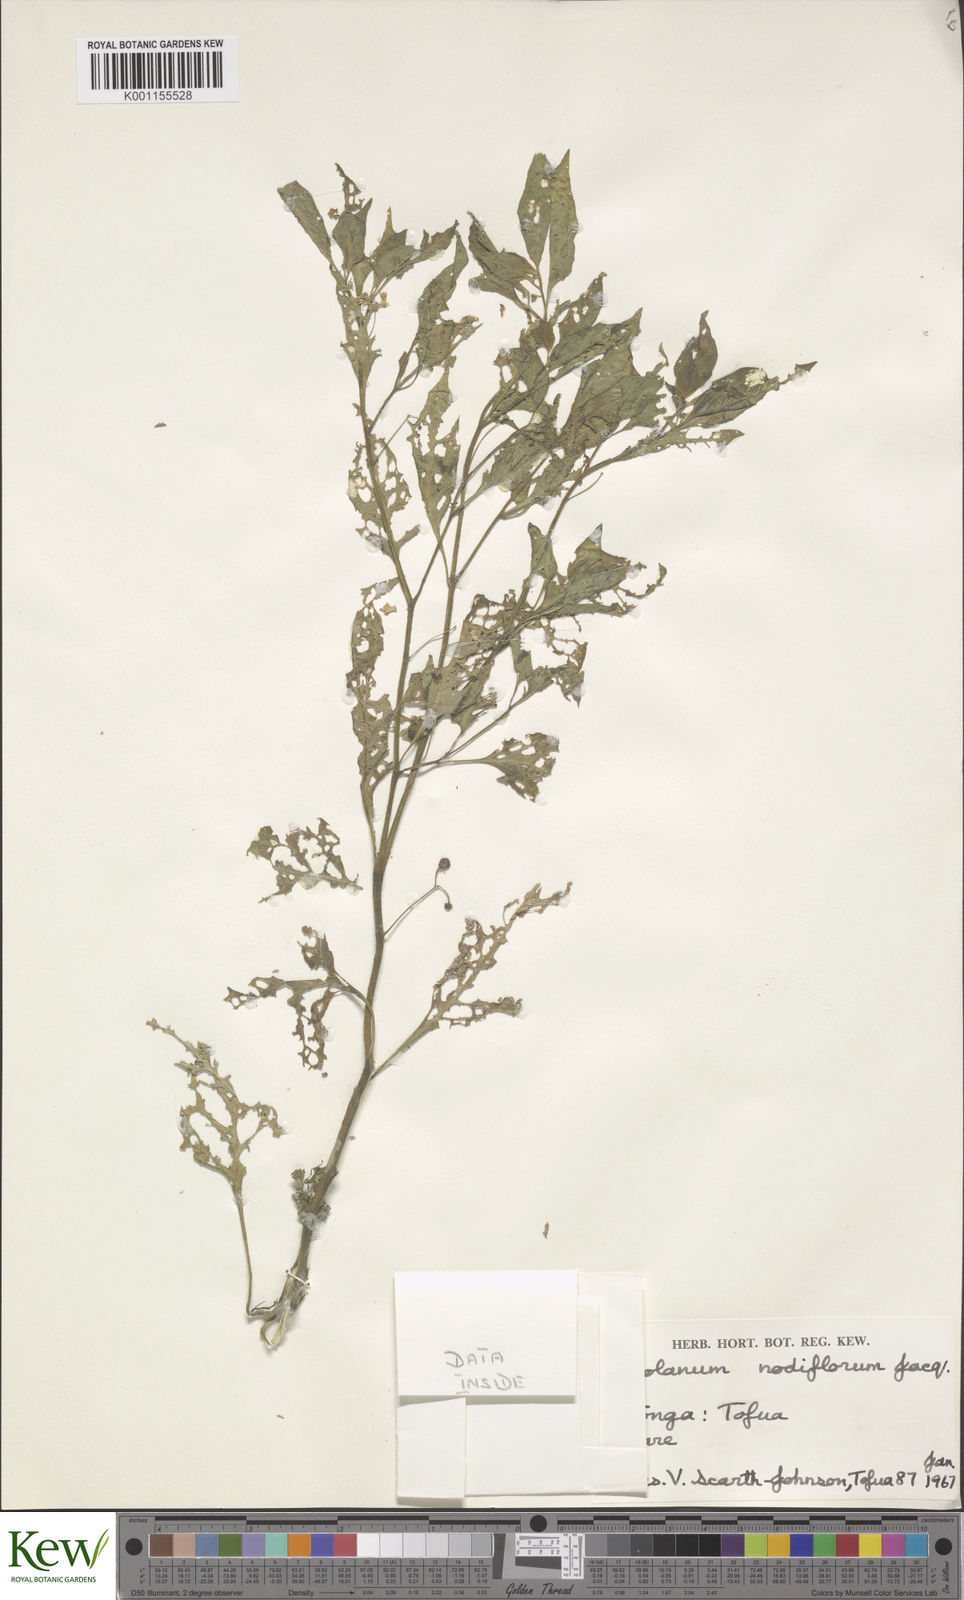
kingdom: Plantae
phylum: Tracheophyta
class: Magnoliopsida
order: Solanales
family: Solanaceae
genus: Solanum
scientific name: Solanum
